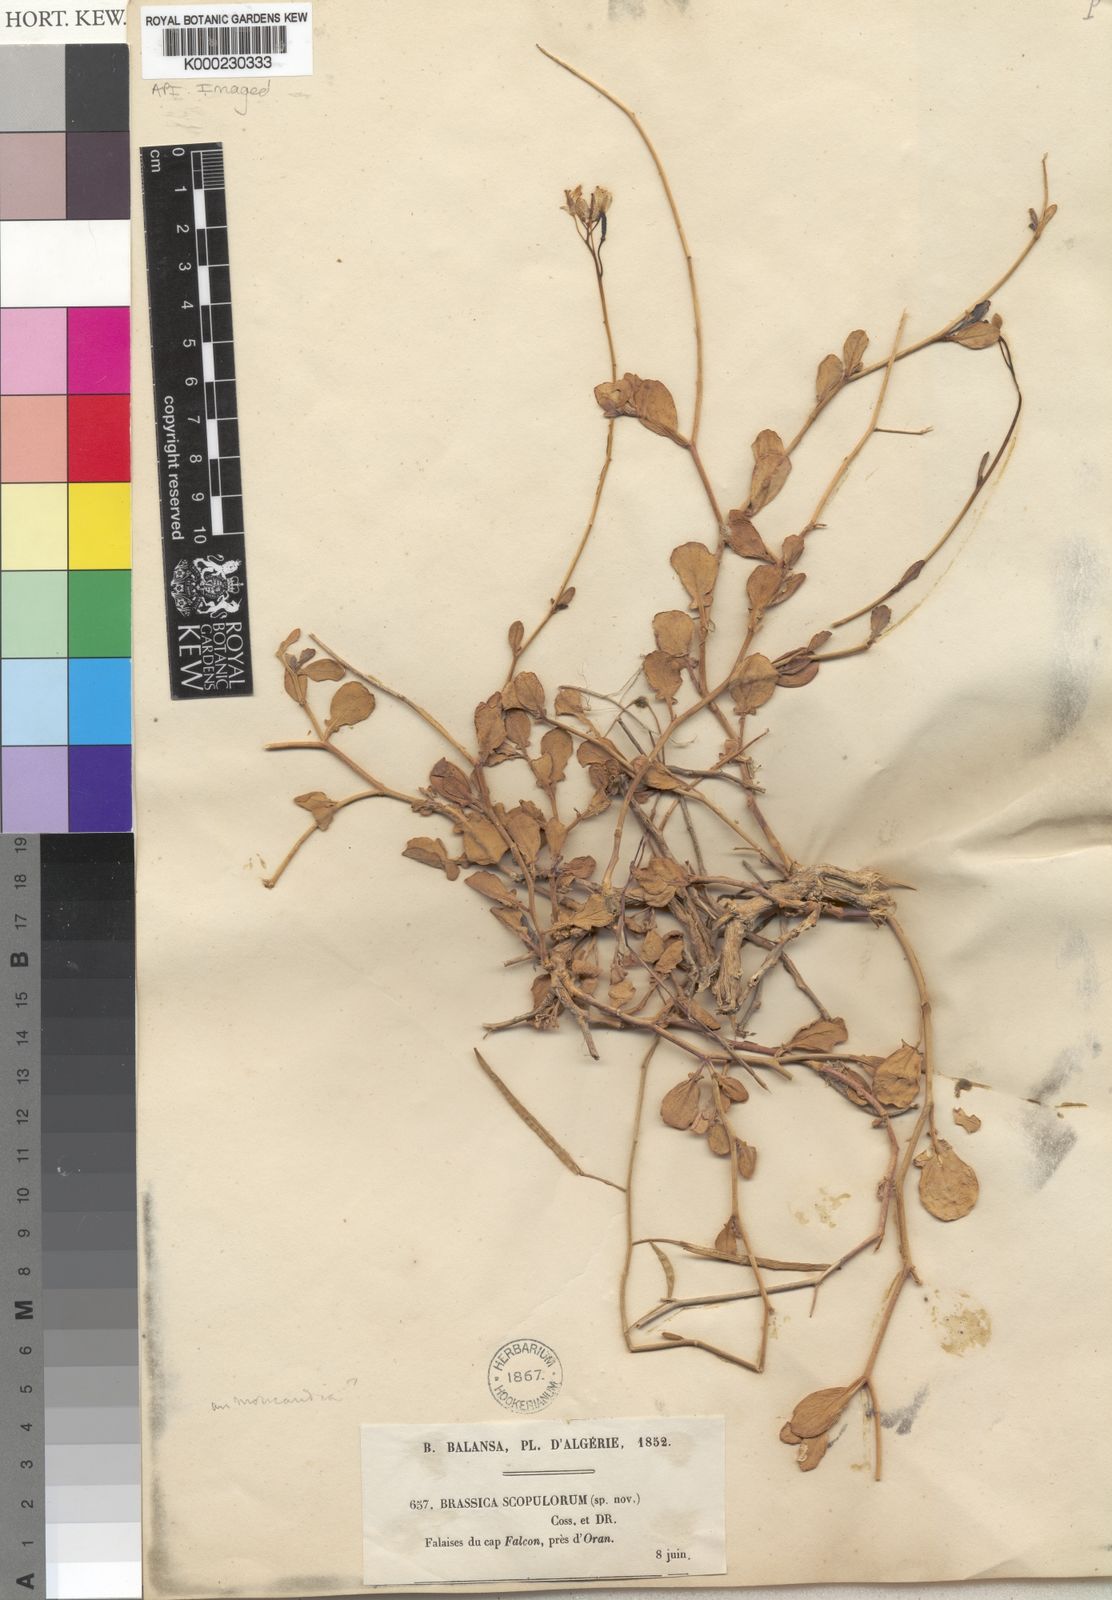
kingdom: Plantae
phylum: Tracheophyta
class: Magnoliopsida
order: Brassicales
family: Brassicaceae
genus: Brassica
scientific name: Brassica
